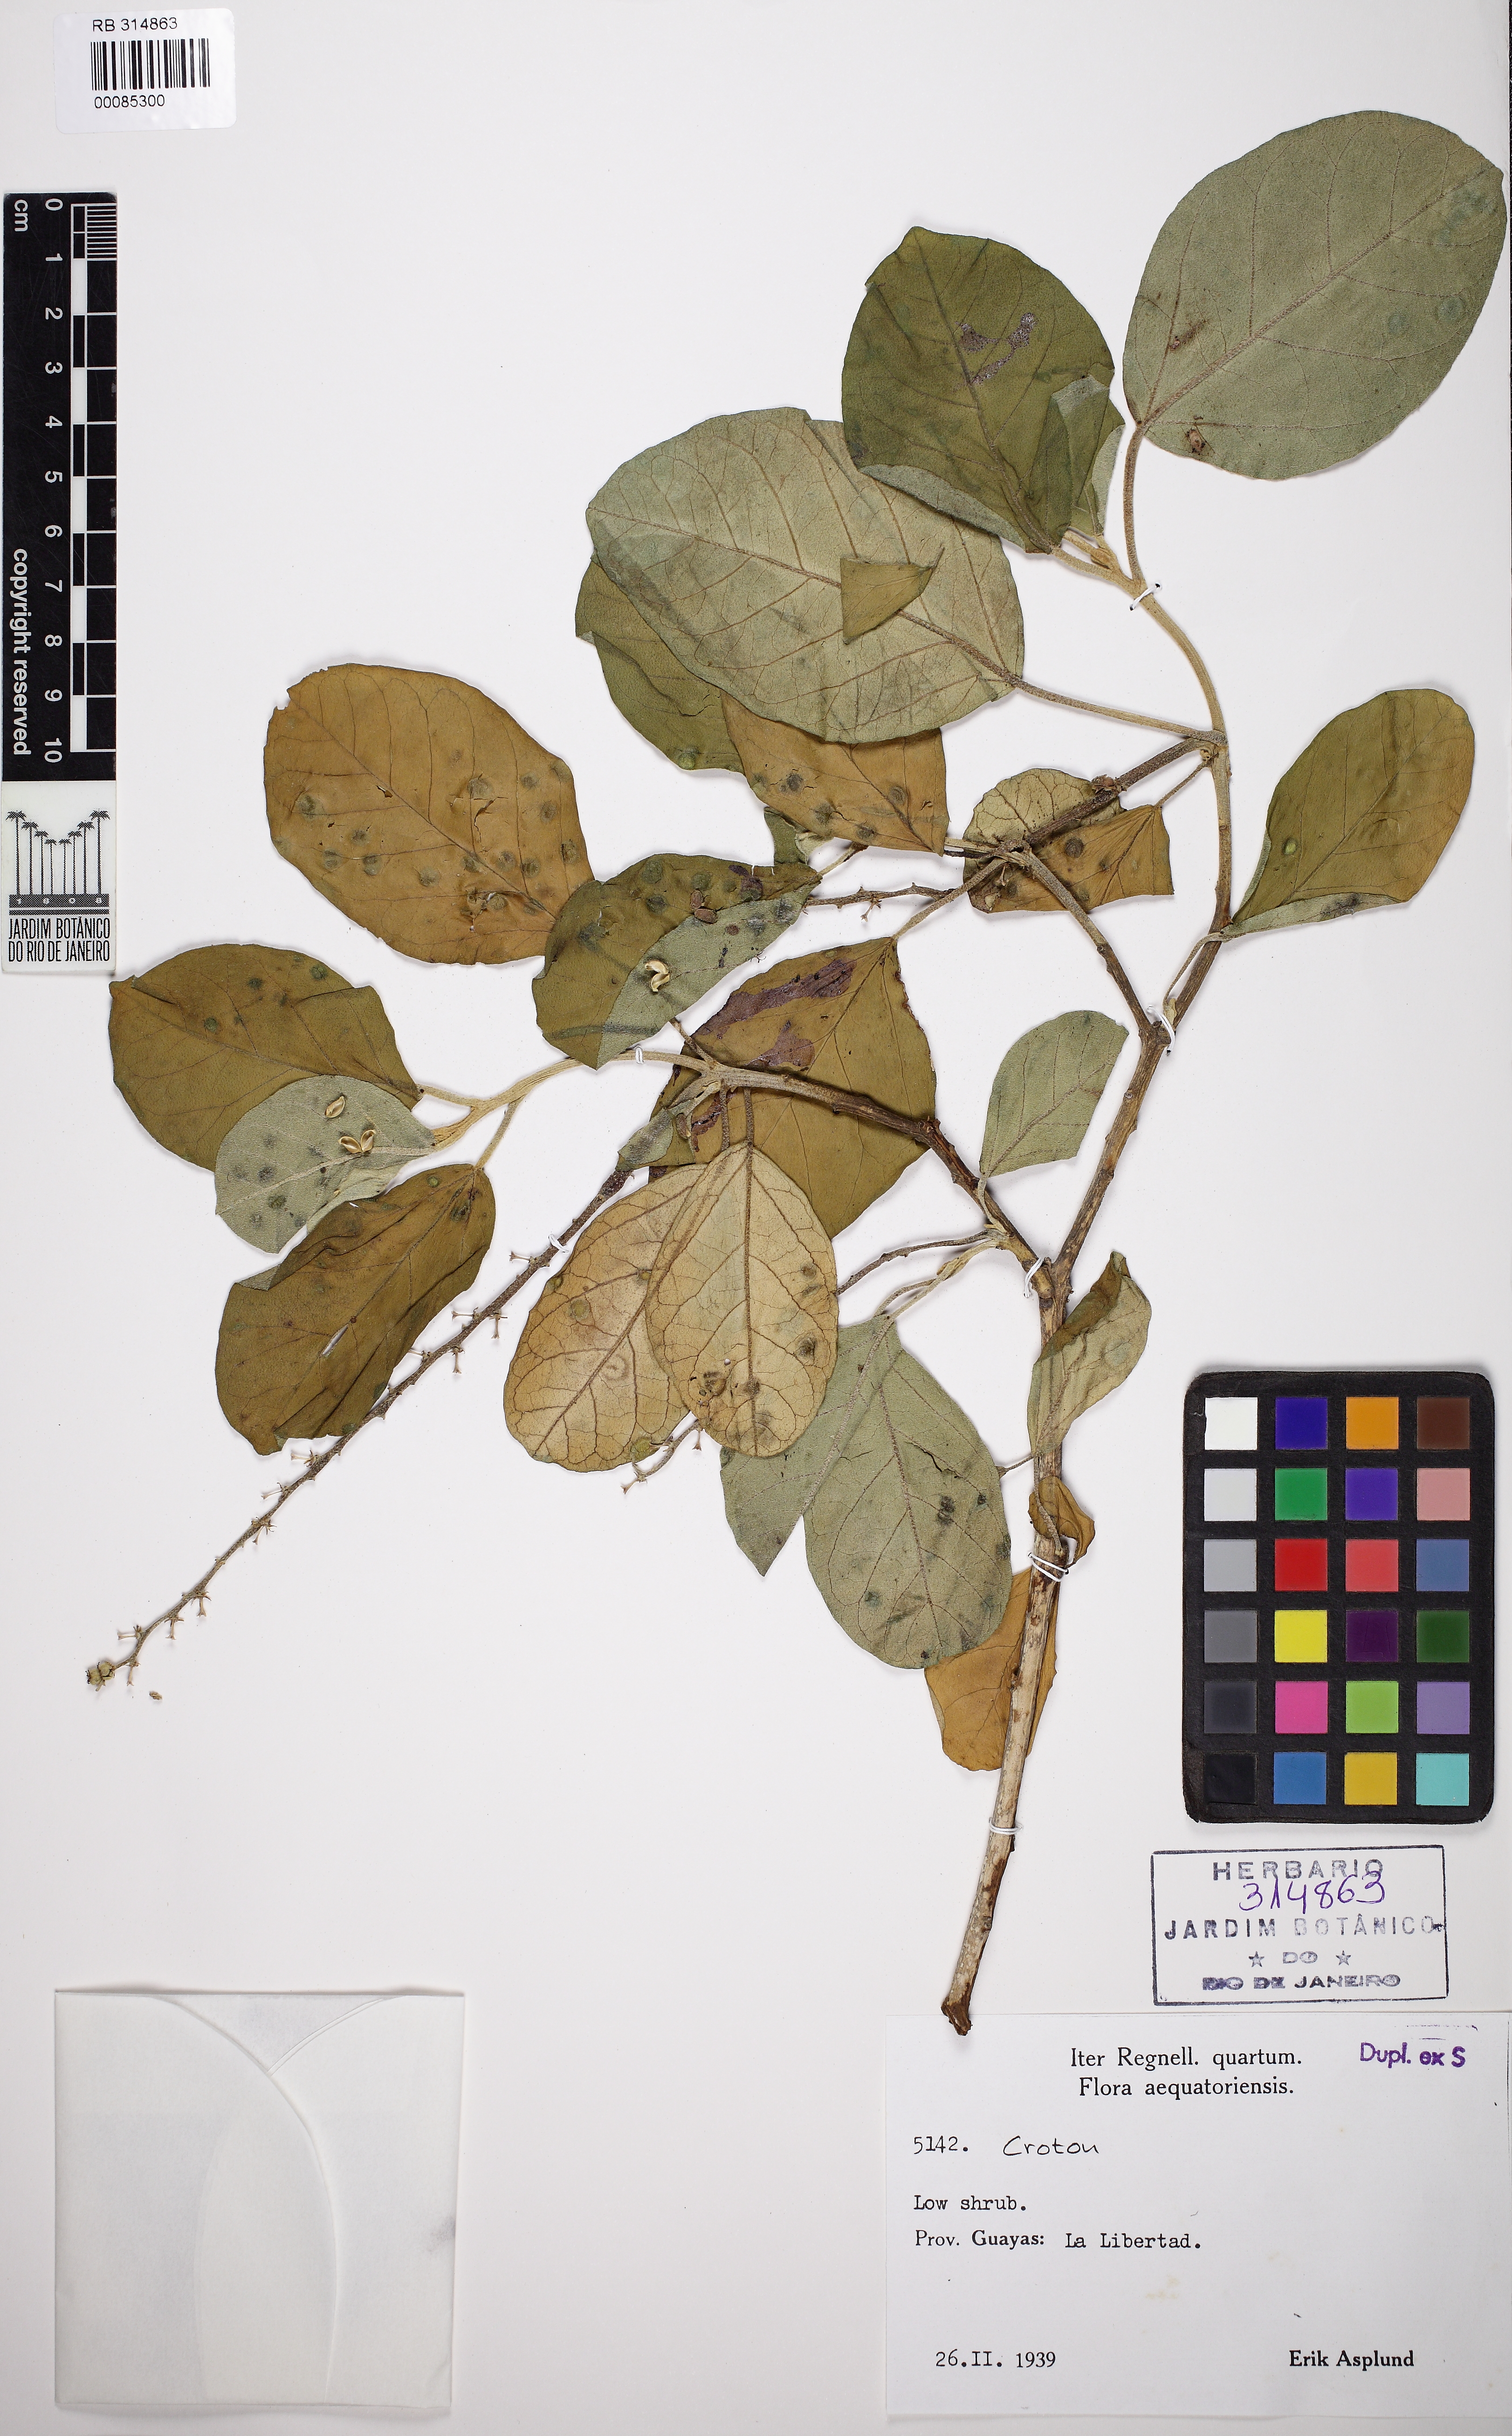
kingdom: Plantae
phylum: Tracheophyta
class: Magnoliopsida
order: Malpighiales
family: Euphorbiaceae
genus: Croton
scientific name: Croton
